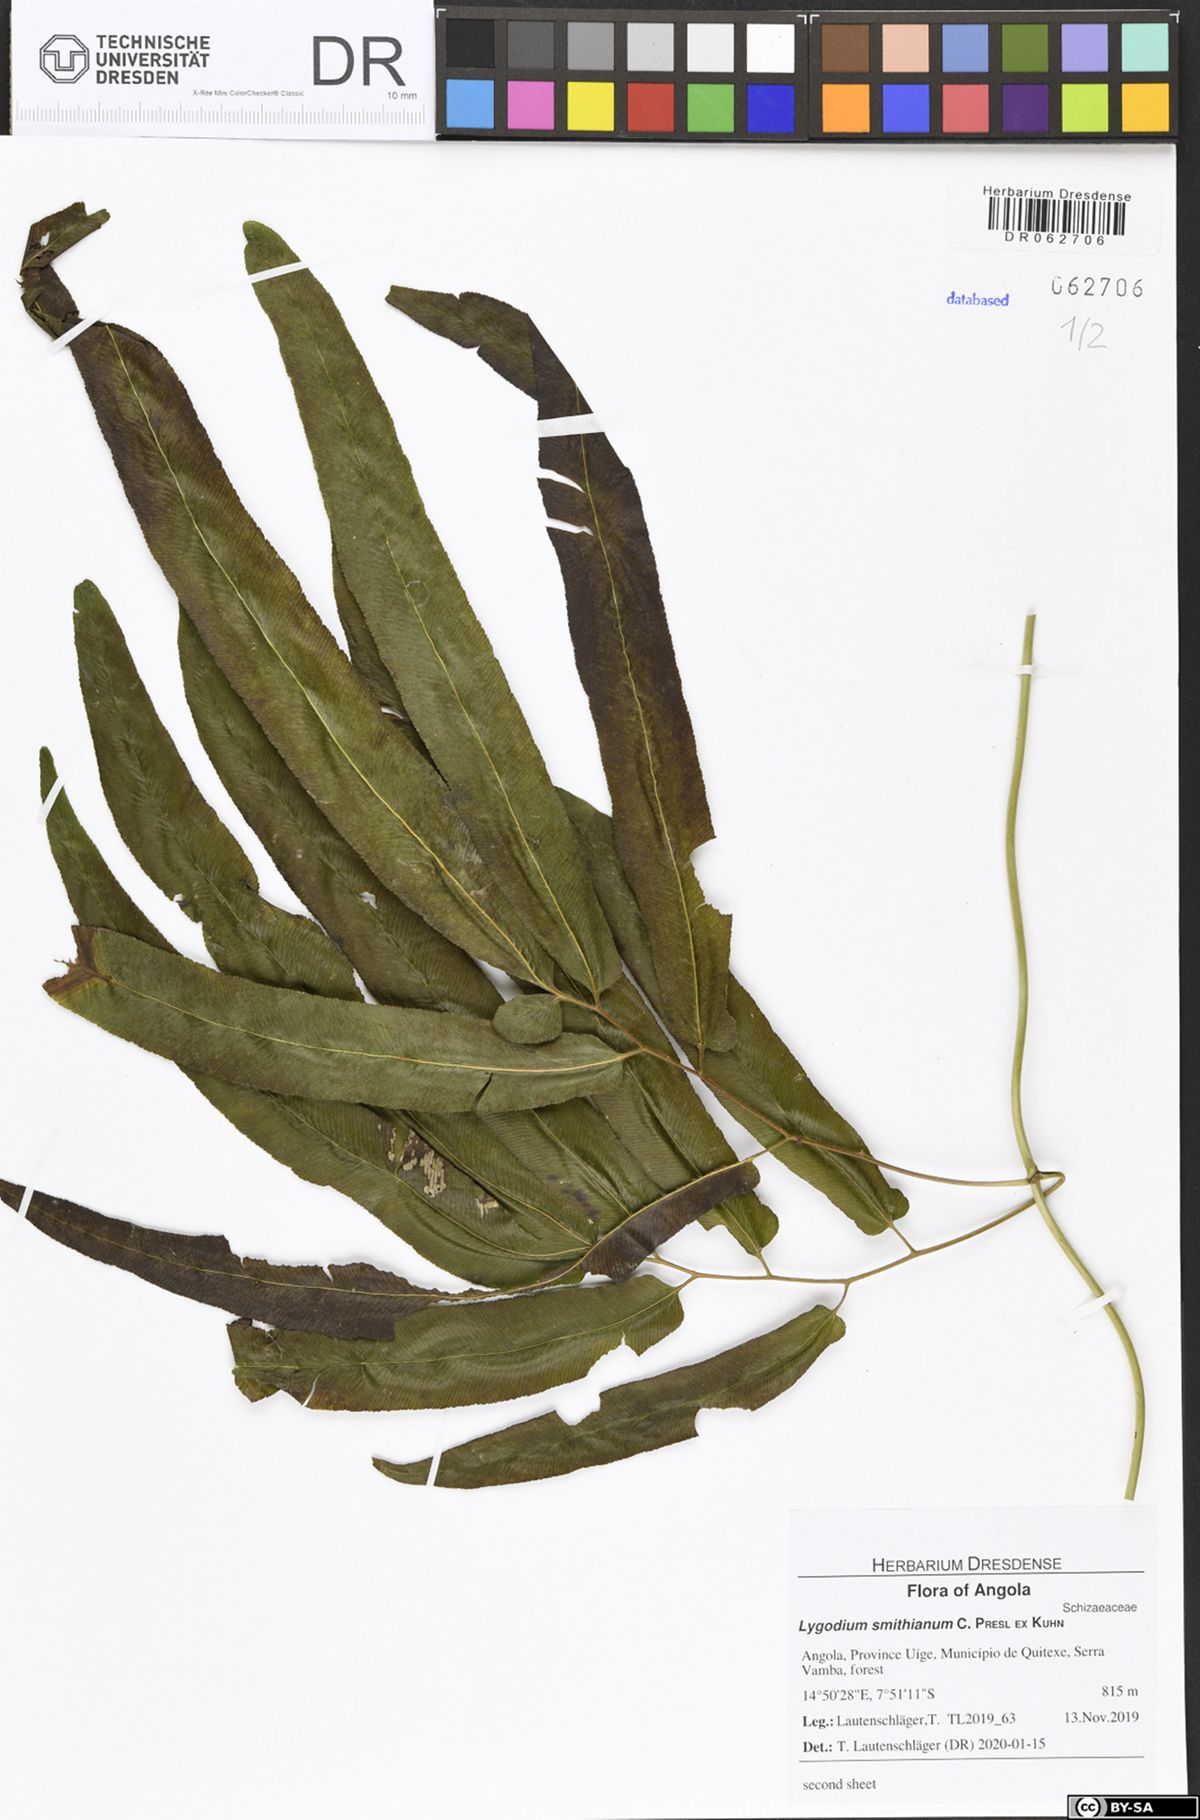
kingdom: Plantae
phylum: Tracheophyta
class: Polypodiopsida
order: Schizaeales
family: Lygodiaceae
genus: Lygodium
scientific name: Lygodium smithianum
